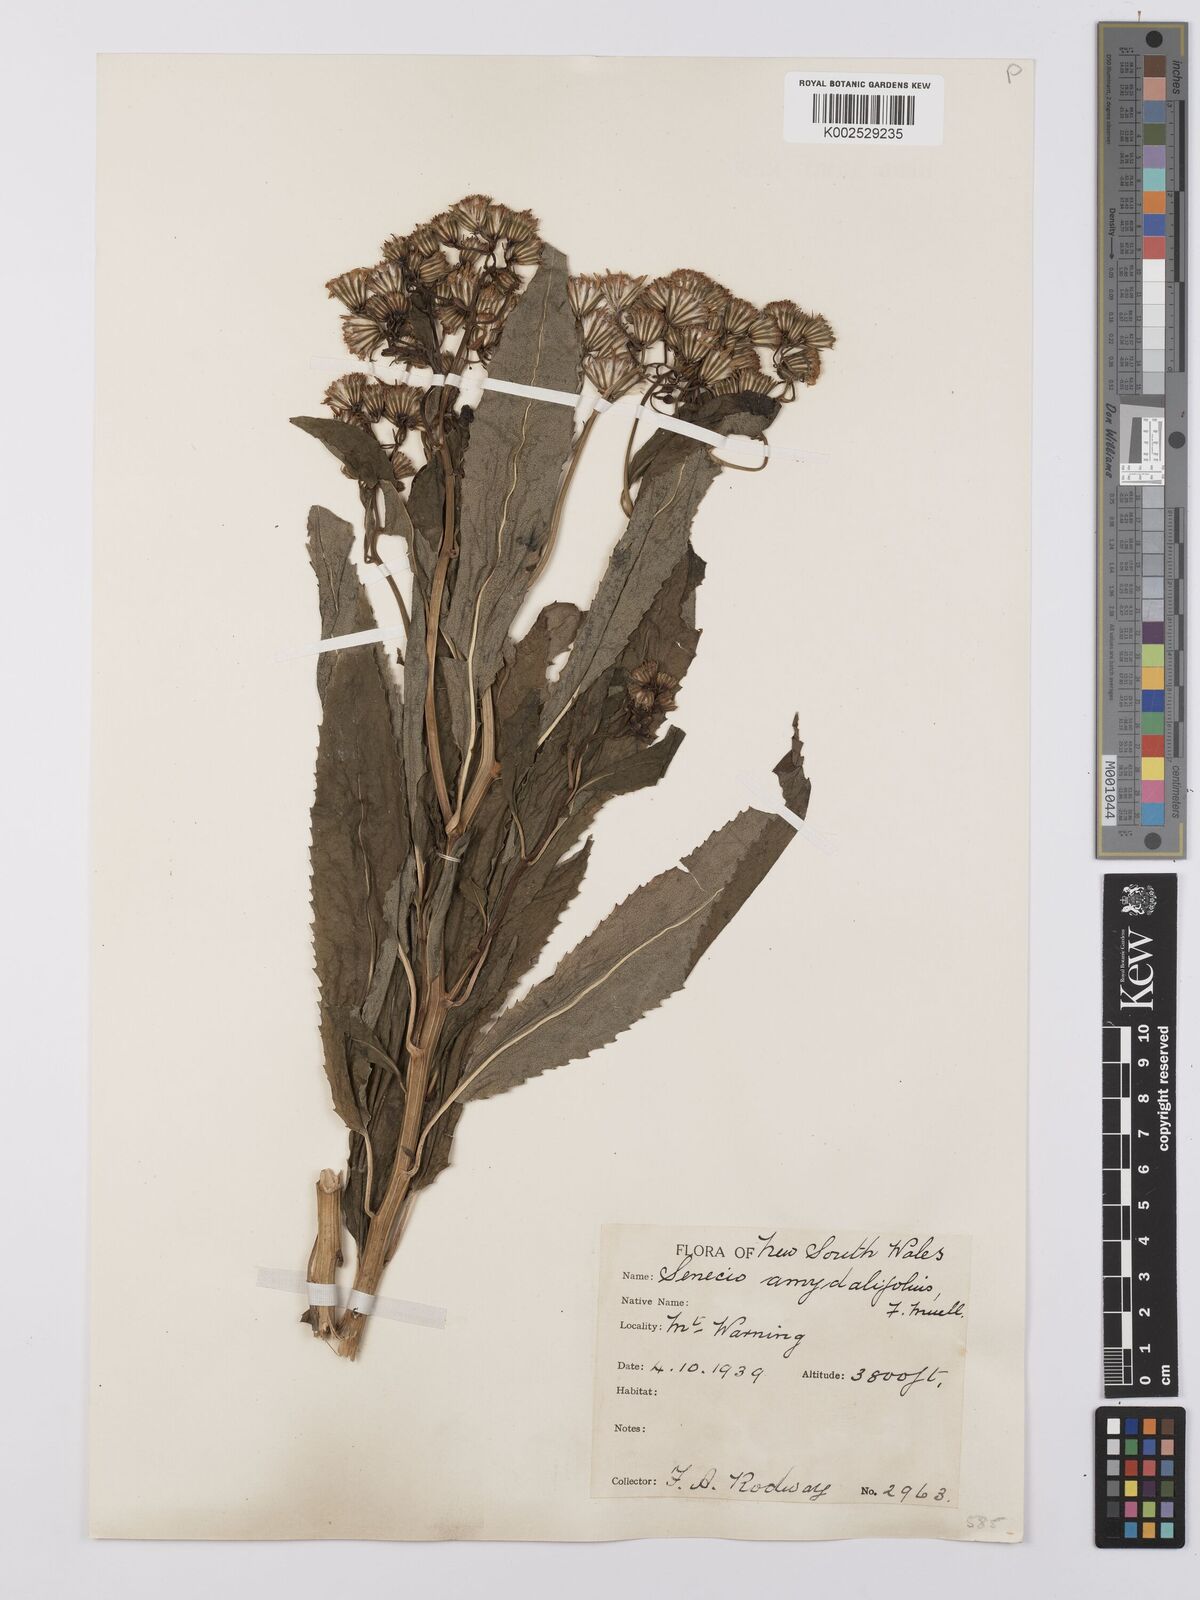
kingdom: Plantae
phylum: Tracheophyta
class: Magnoliopsida
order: Asterales
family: Asteraceae
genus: Lordhowea
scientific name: Lordhowea amygdalifolia
